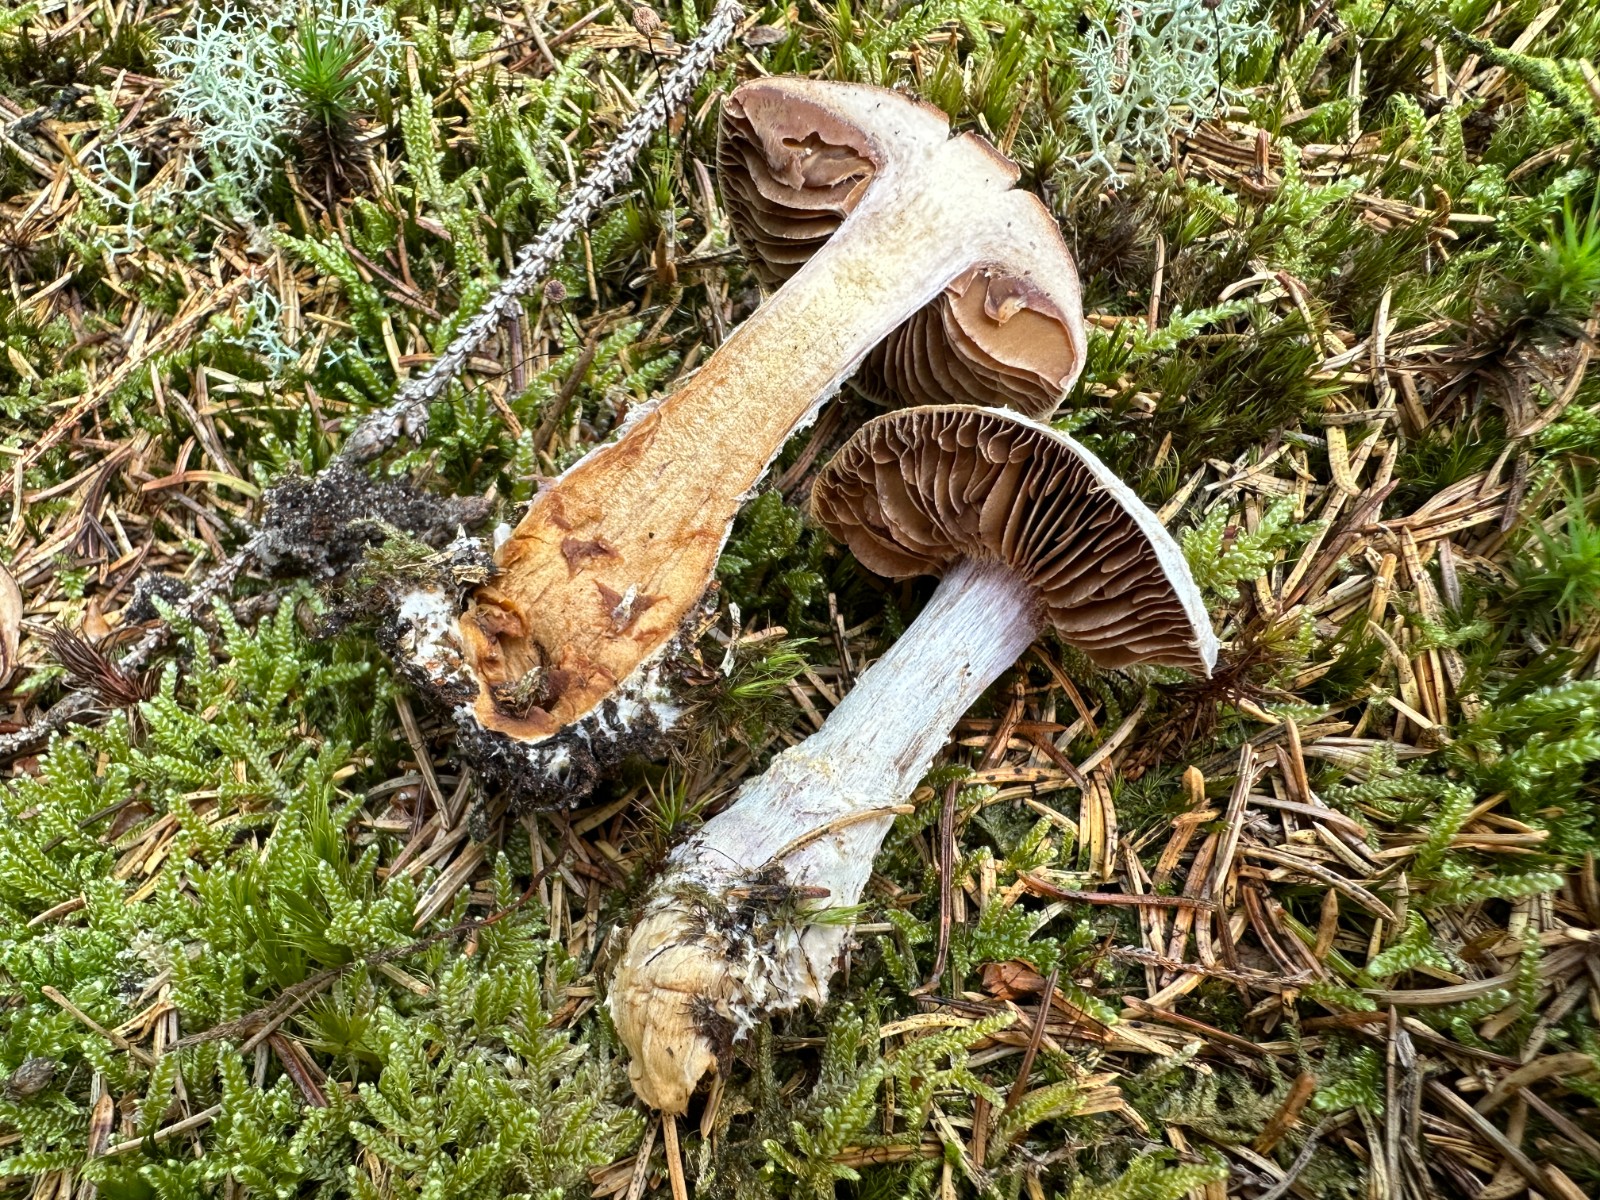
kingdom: Fungi
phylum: Basidiomycota
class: Agaricomycetes
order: Agaricales
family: Cortinariaceae
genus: Cortinarius
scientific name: Cortinarius traganus
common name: safrankødet slørhat
